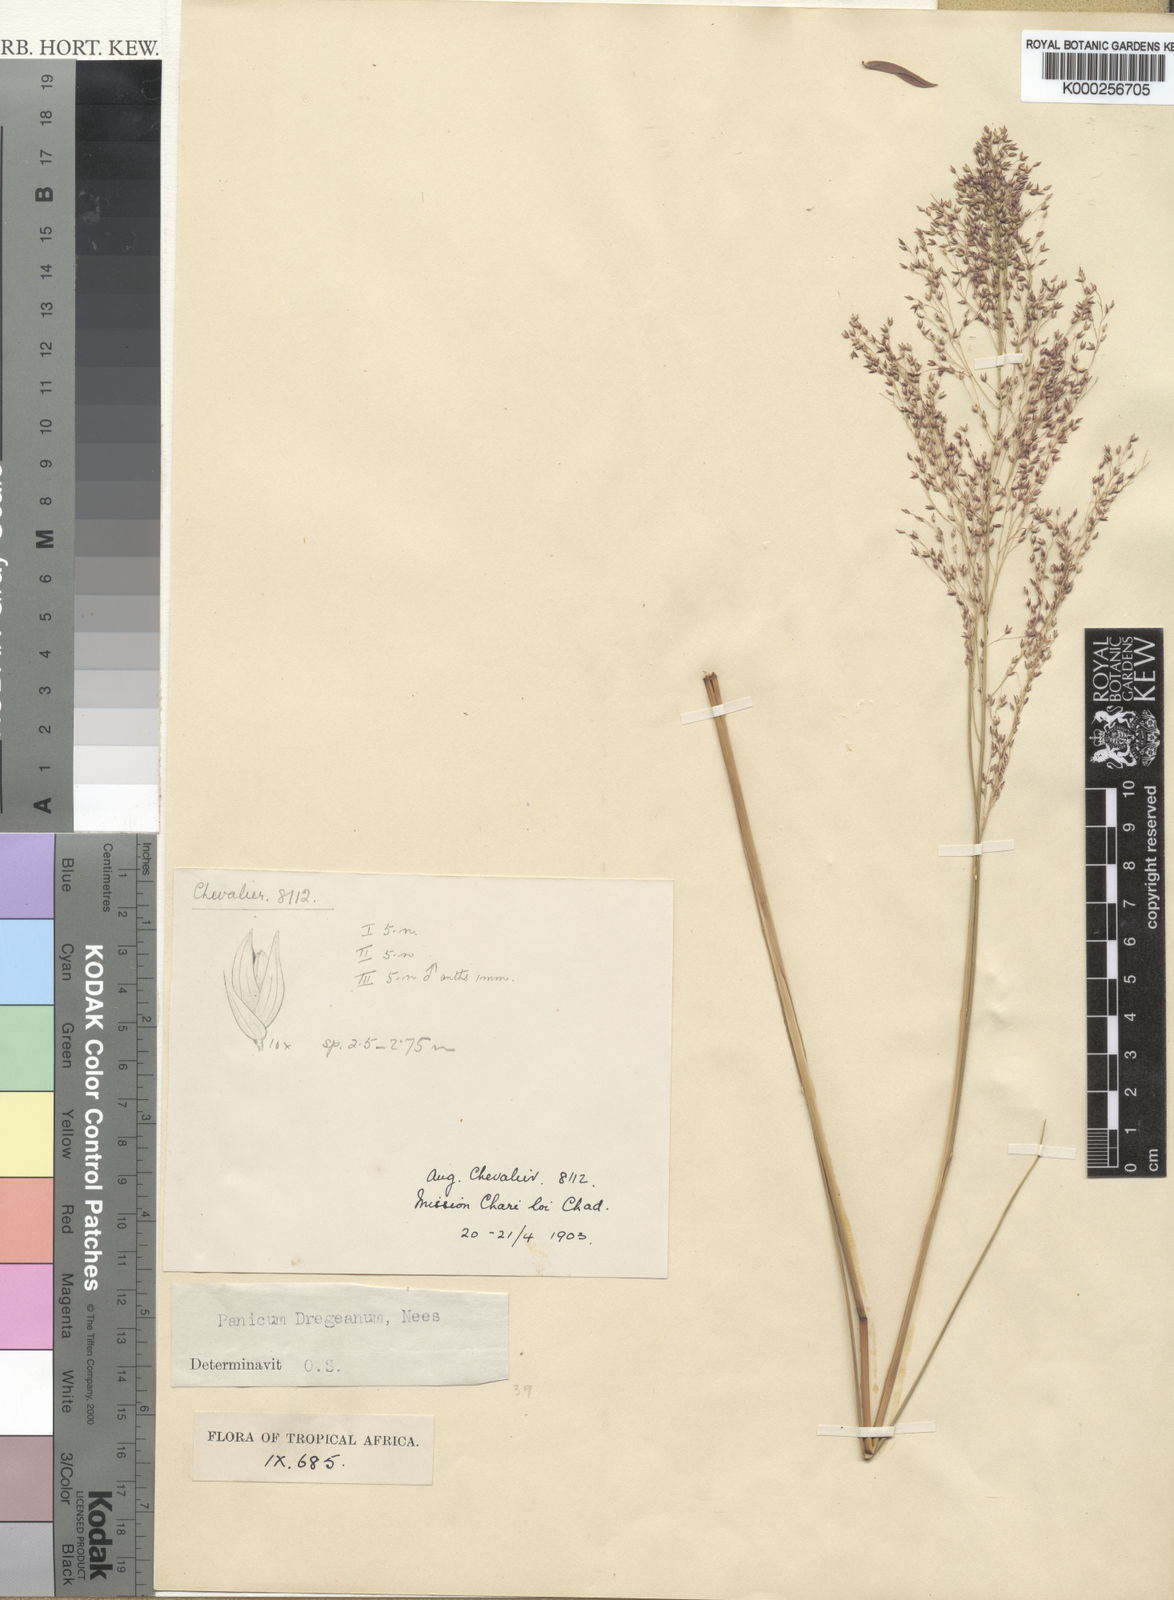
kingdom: Plantae
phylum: Tracheophyta
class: Liliopsida
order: Poales
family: Poaceae
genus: Panicum
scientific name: Panicum dregeanum
